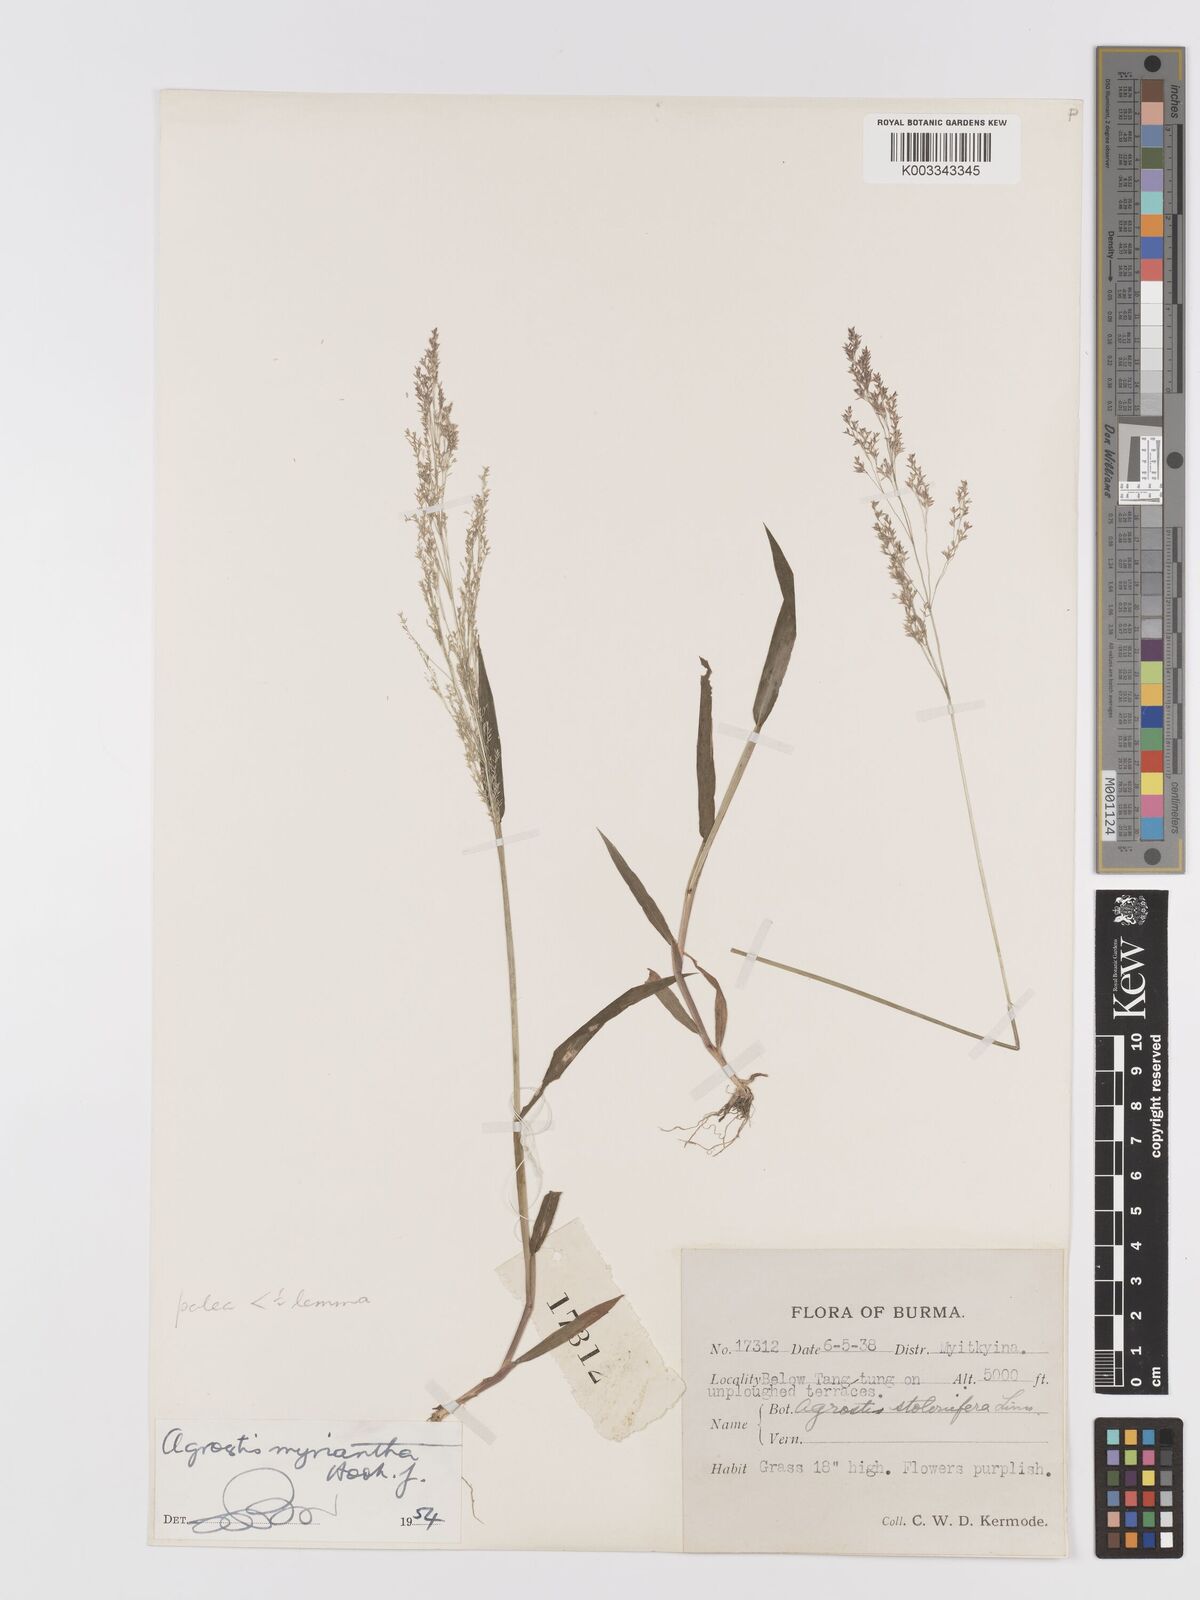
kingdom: Plantae
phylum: Tracheophyta
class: Liliopsida
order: Poales
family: Poaceae
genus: Agrostis
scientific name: Agrostis micrantha
